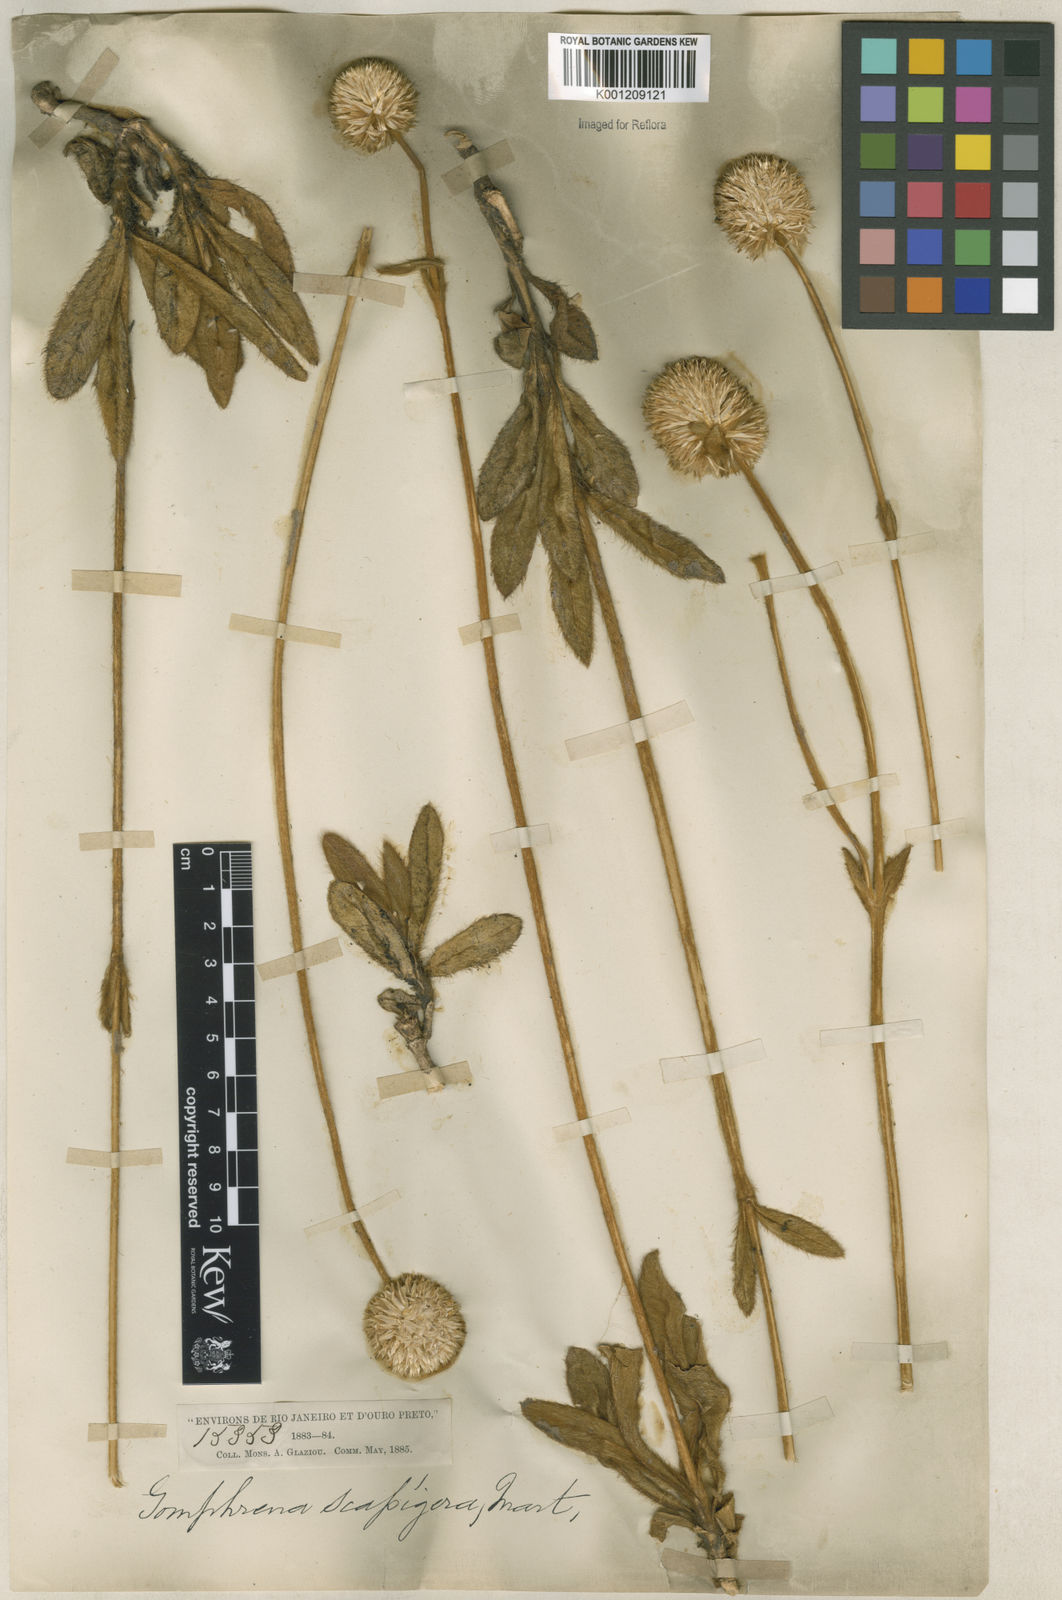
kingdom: Plantae
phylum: Tracheophyta
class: Magnoliopsida
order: Caryophyllales
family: Amaranthaceae
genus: Gomphrena
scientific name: Gomphrena scapigera
